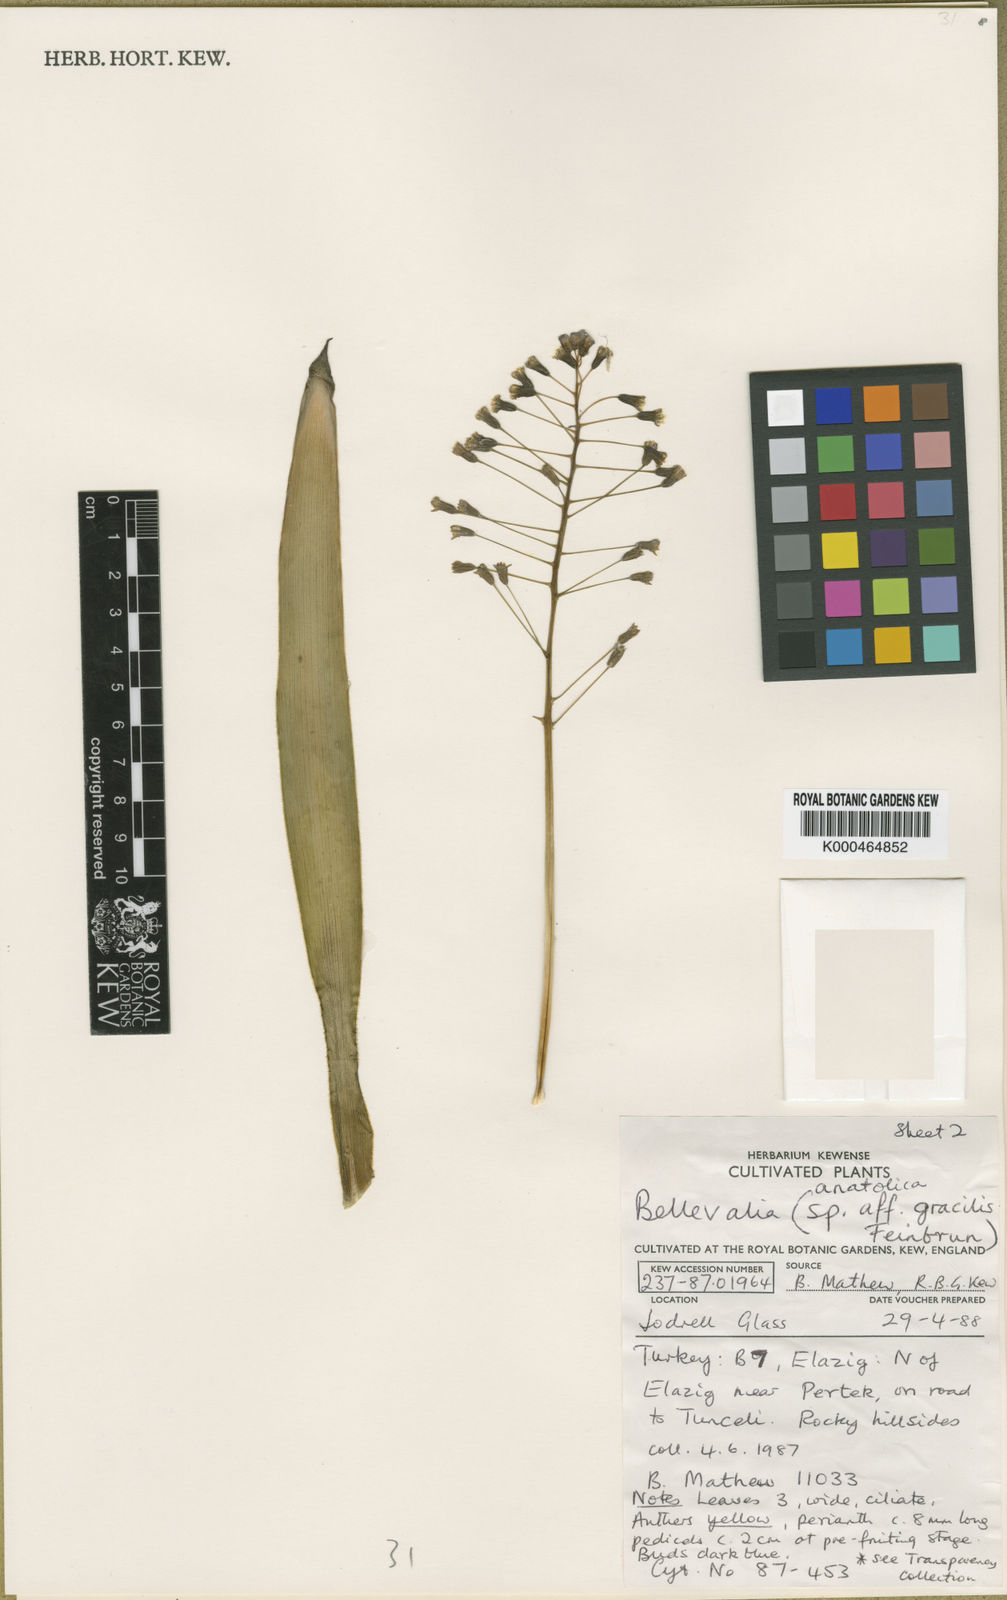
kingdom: Plantae
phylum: Tracheophyta
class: Liliopsida
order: Asparagales
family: Asparagaceae
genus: Bellevalia
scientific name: Bellevalia
